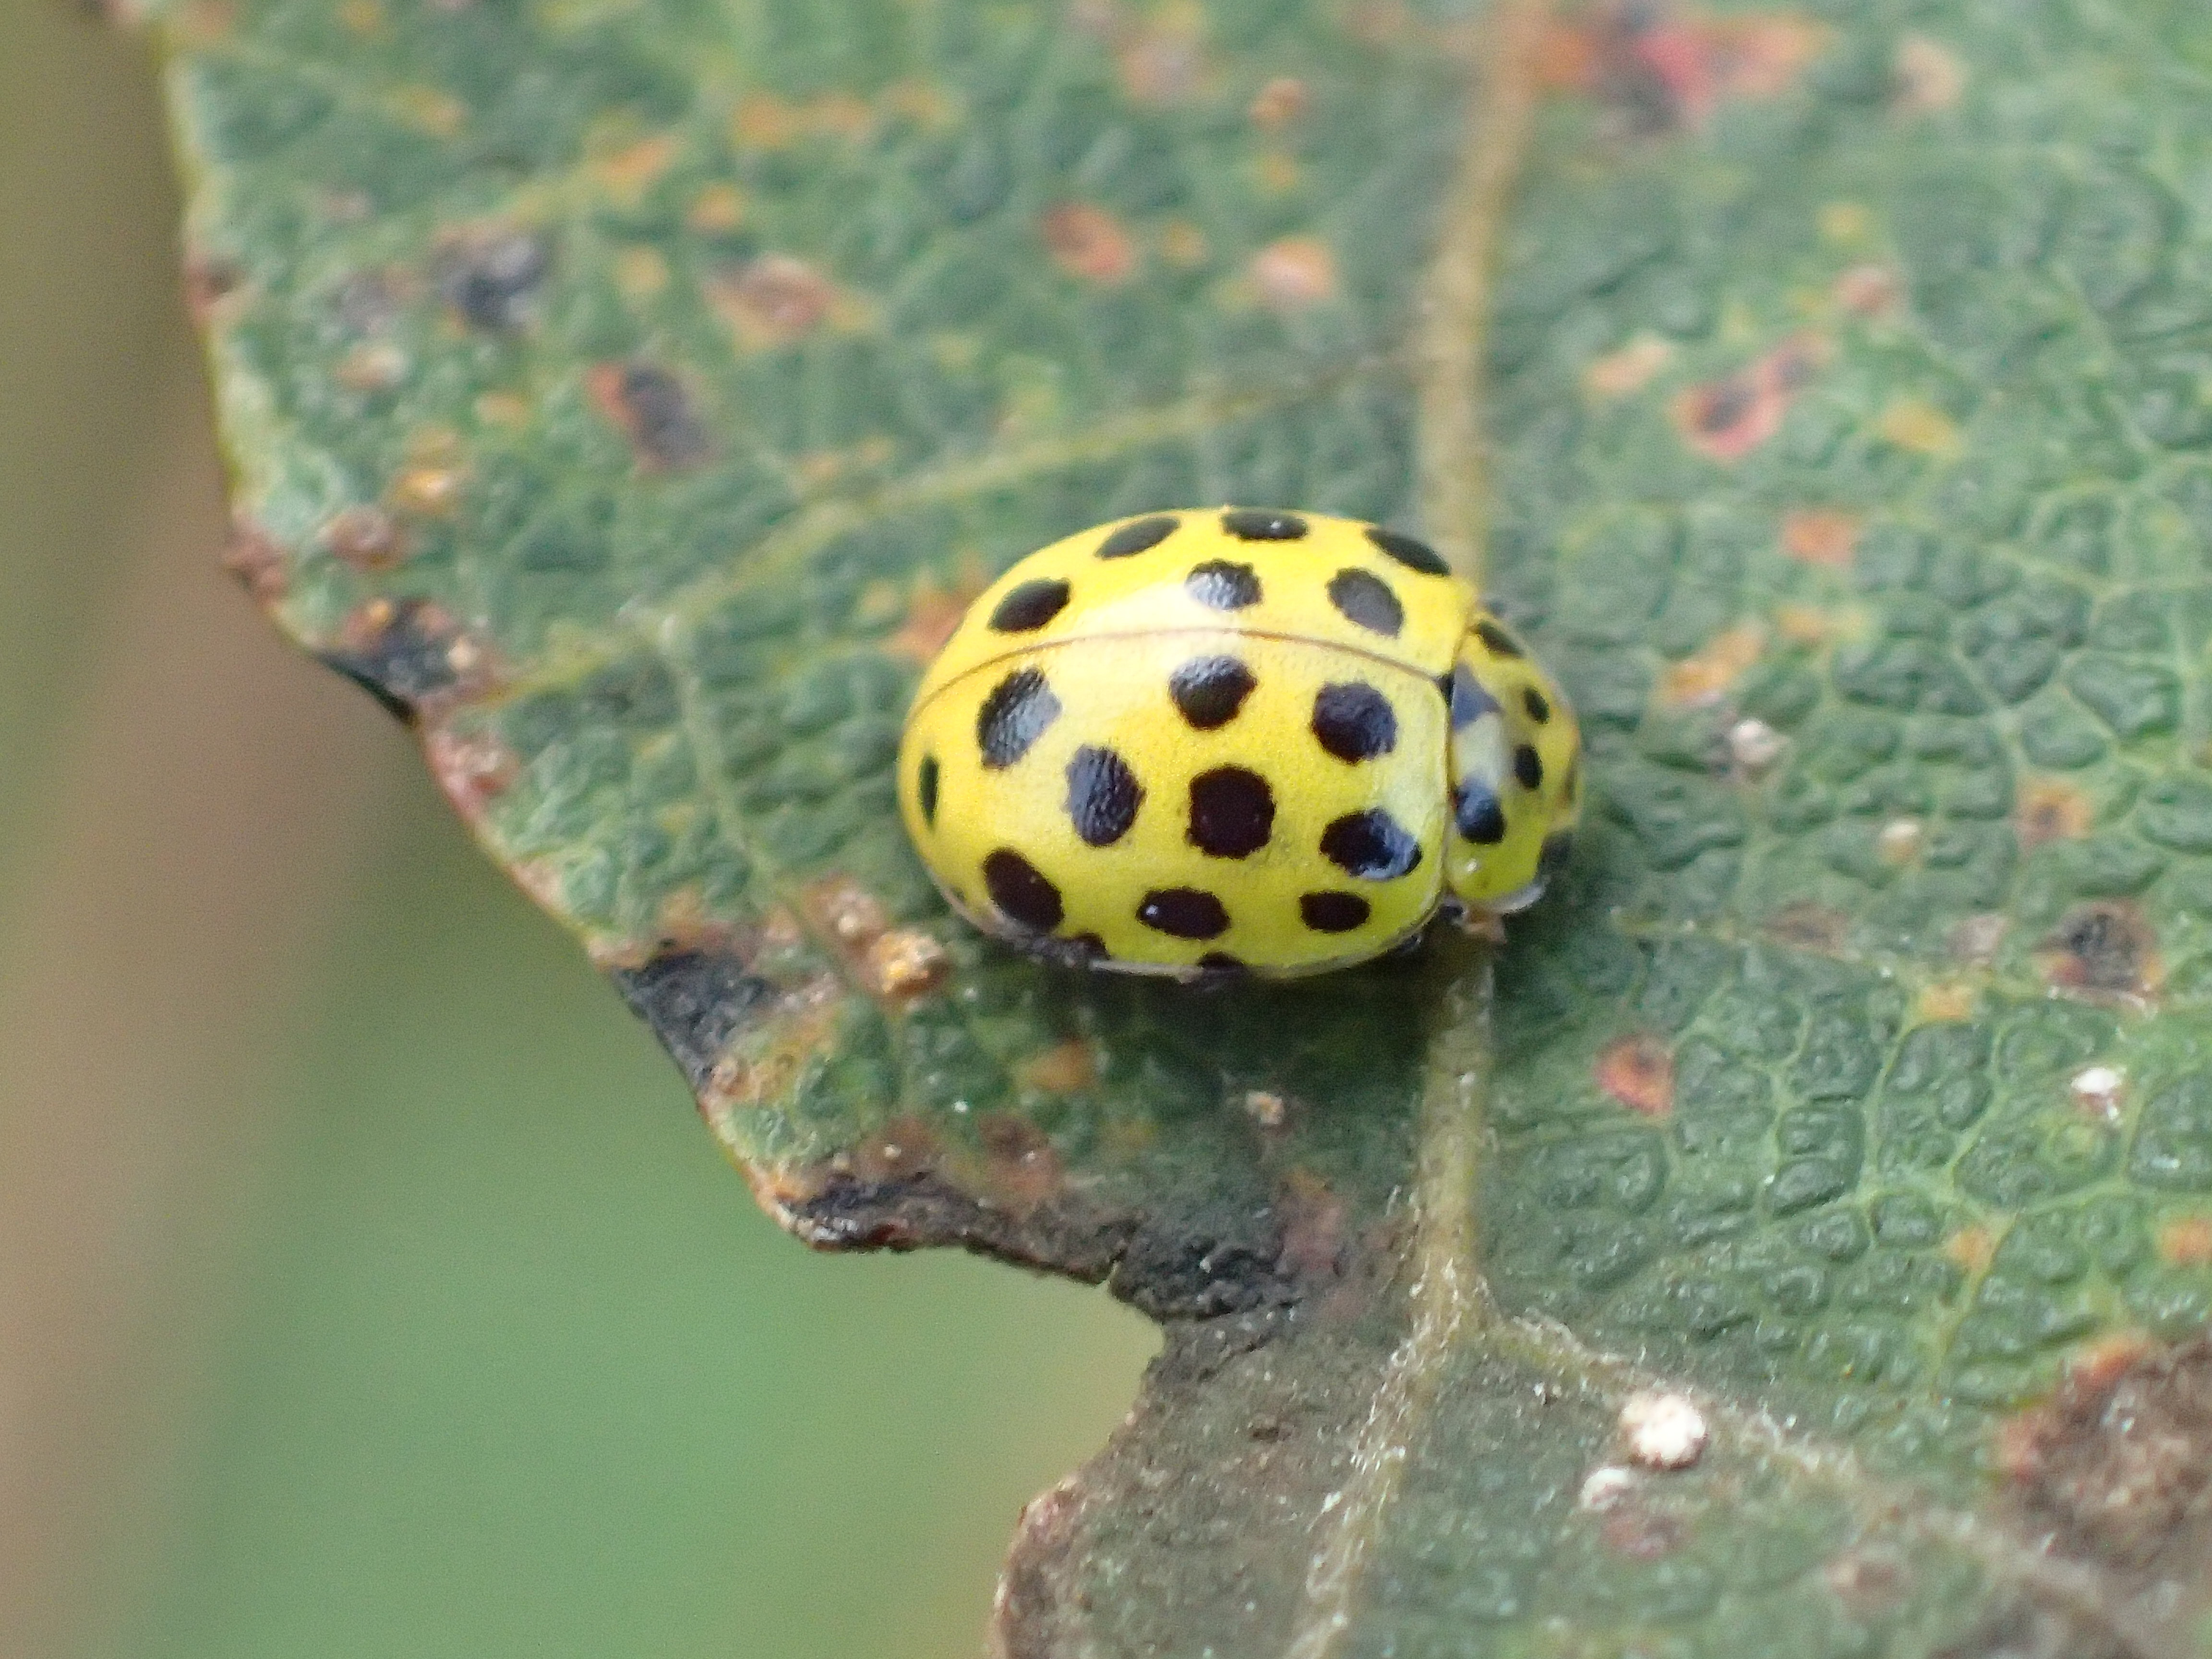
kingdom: Animalia
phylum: Arthropoda
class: Insecta
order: Coleoptera
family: Coccinellidae
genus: Psyllobora
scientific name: Psyllobora vigintiduopunctata
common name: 22-spot ladybird
